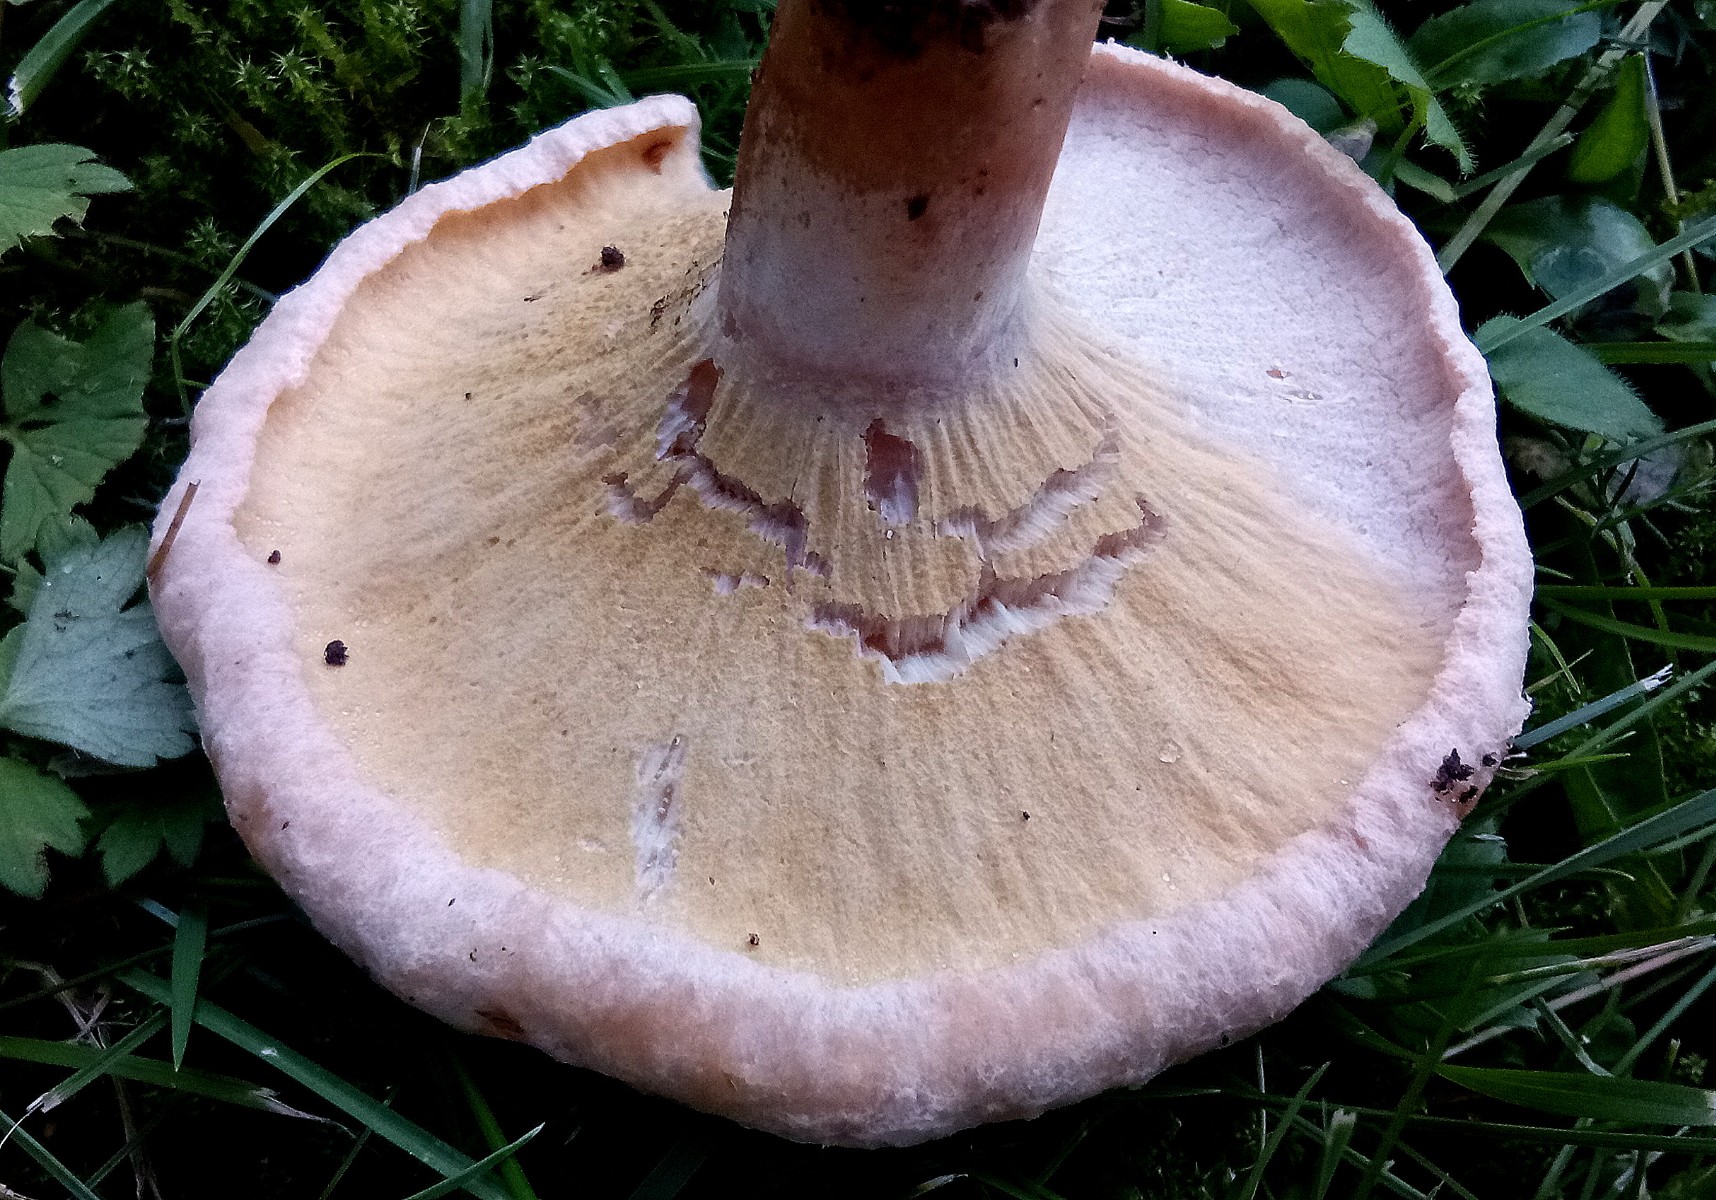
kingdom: Fungi
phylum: Ascomycota
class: Sordariomycetes
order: Hypocreales
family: Hypocreaceae
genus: Hypomyces
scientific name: Hypomyces spadiceus
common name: mælkeskæg-snylteskorpe
